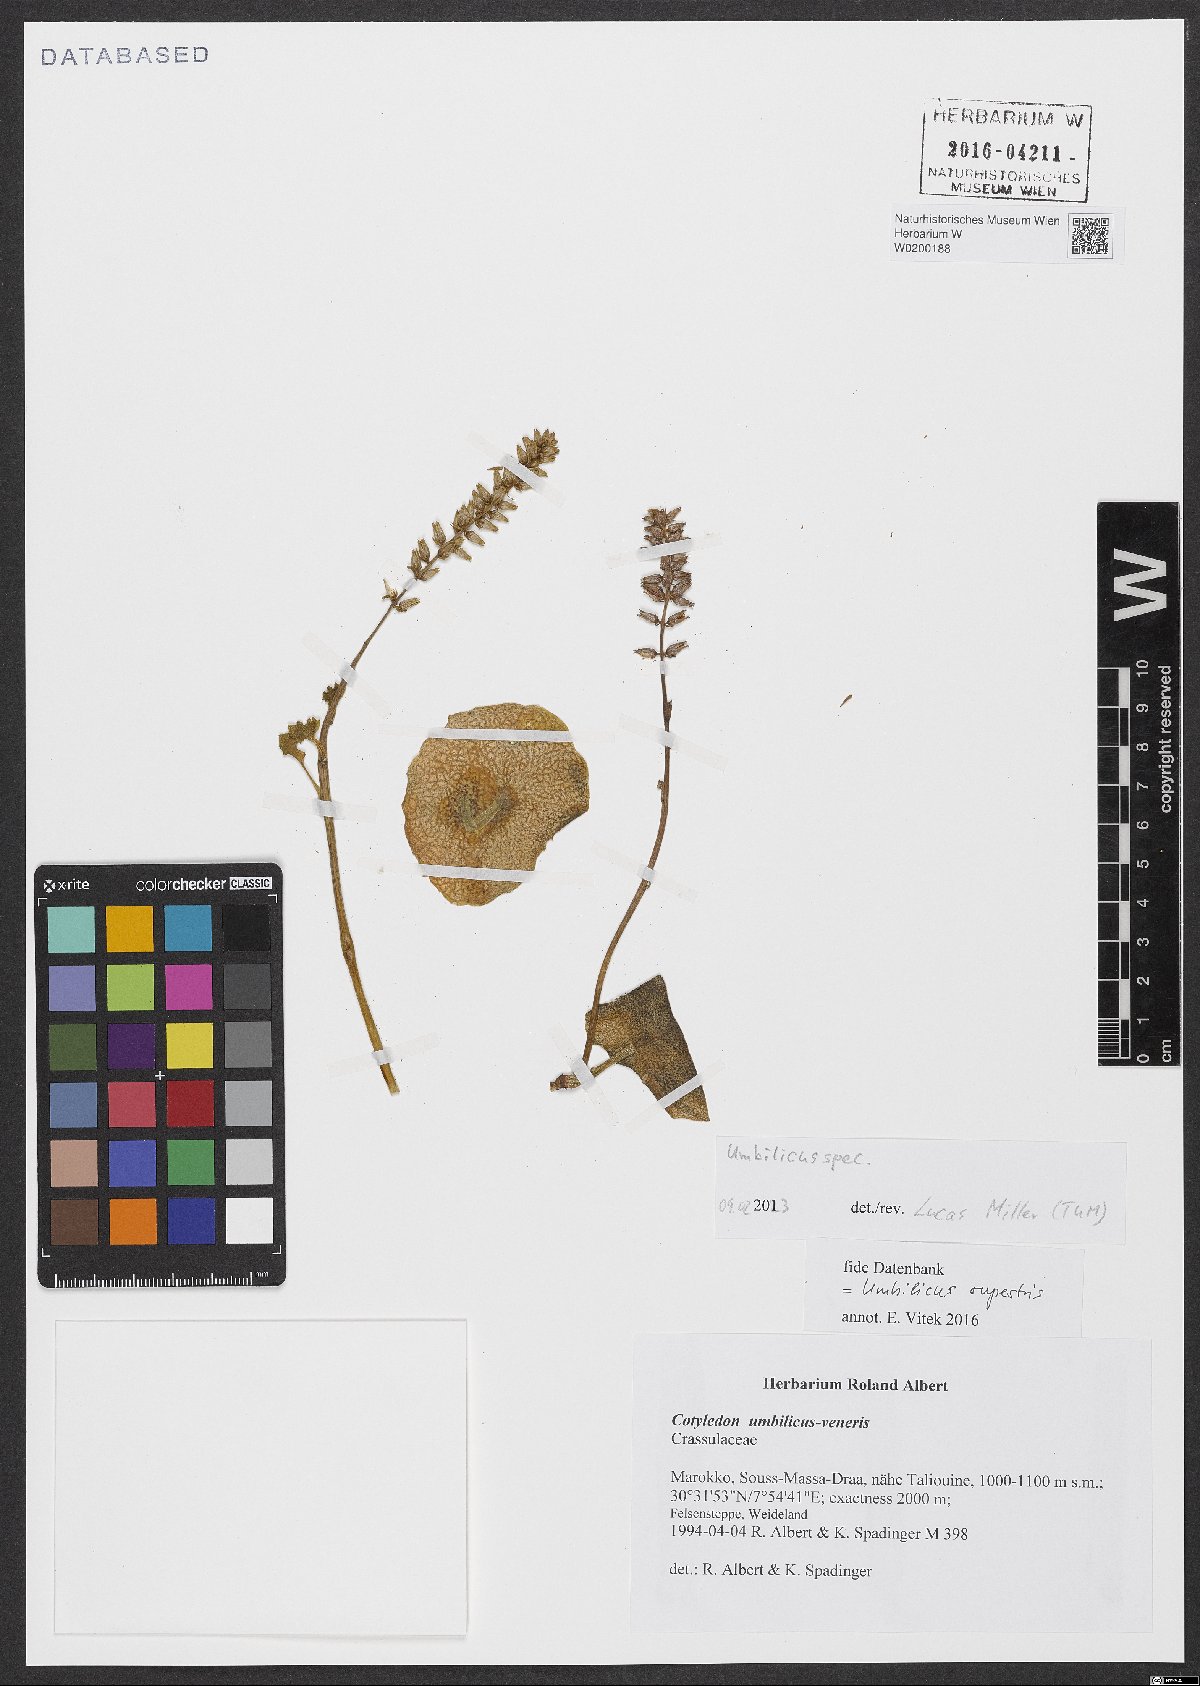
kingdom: Plantae
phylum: Tracheophyta
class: Magnoliopsida
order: Saxifragales
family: Crassulaceae
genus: Umbilicus
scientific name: Umbilicus rupestris
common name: Navelwort
